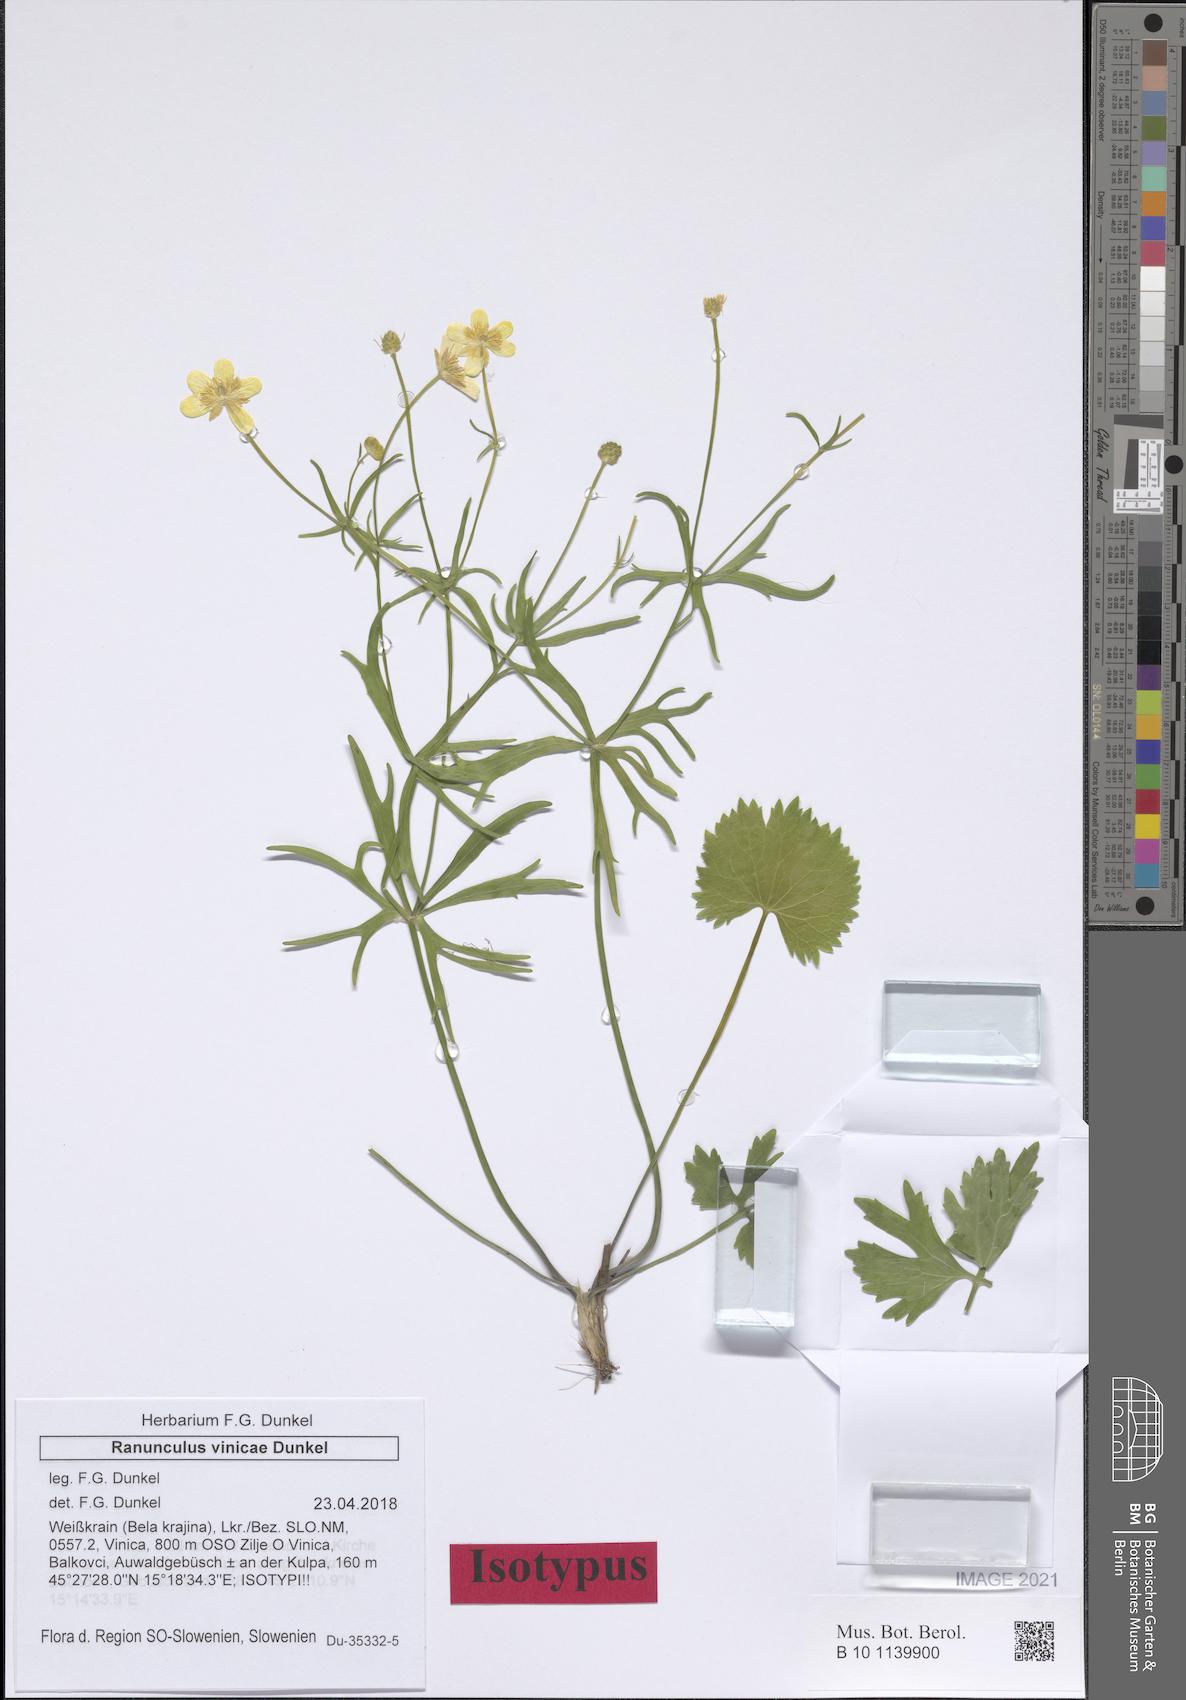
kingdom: Plantae
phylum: Tracheophyta
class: Magnoliopsida
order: Ranunculales
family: Ranunculaceae
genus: Ranunculus
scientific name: Ranunculus vinicae
